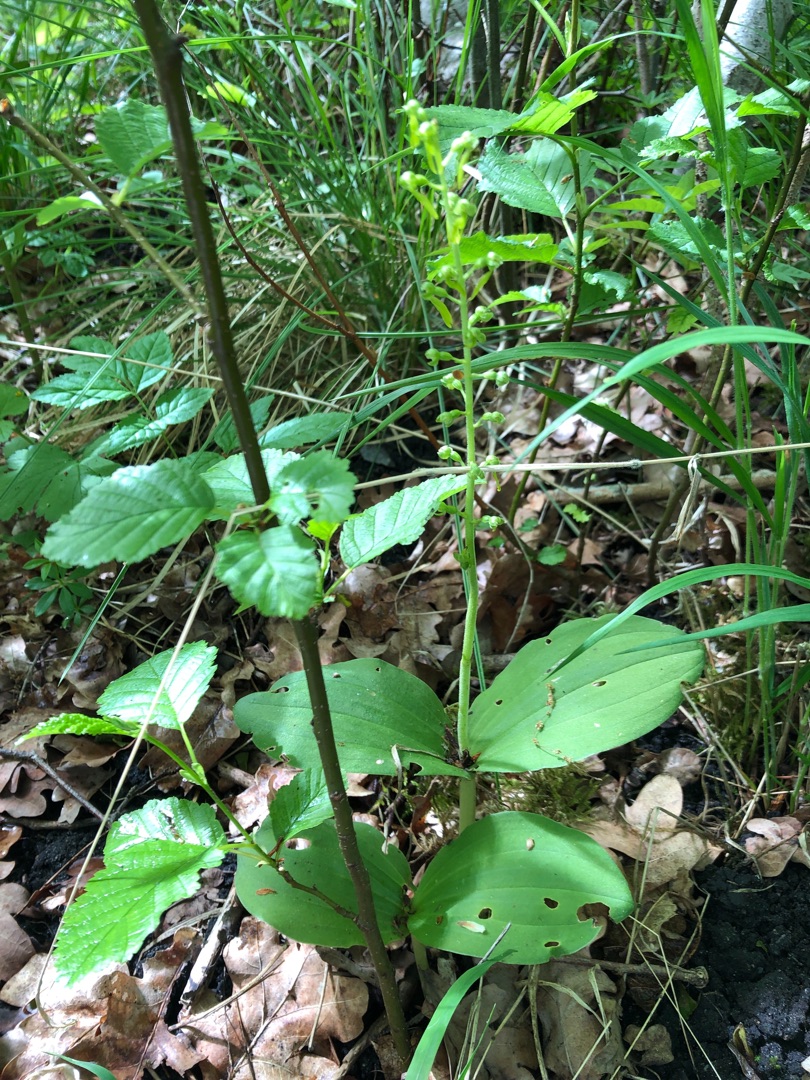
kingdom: Plantae
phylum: Tracheophyta
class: Liliopsida
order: Asparagales
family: Orchidaceae
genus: Neottia
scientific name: Neottia ovata
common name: Ægbladet fliglæbe
